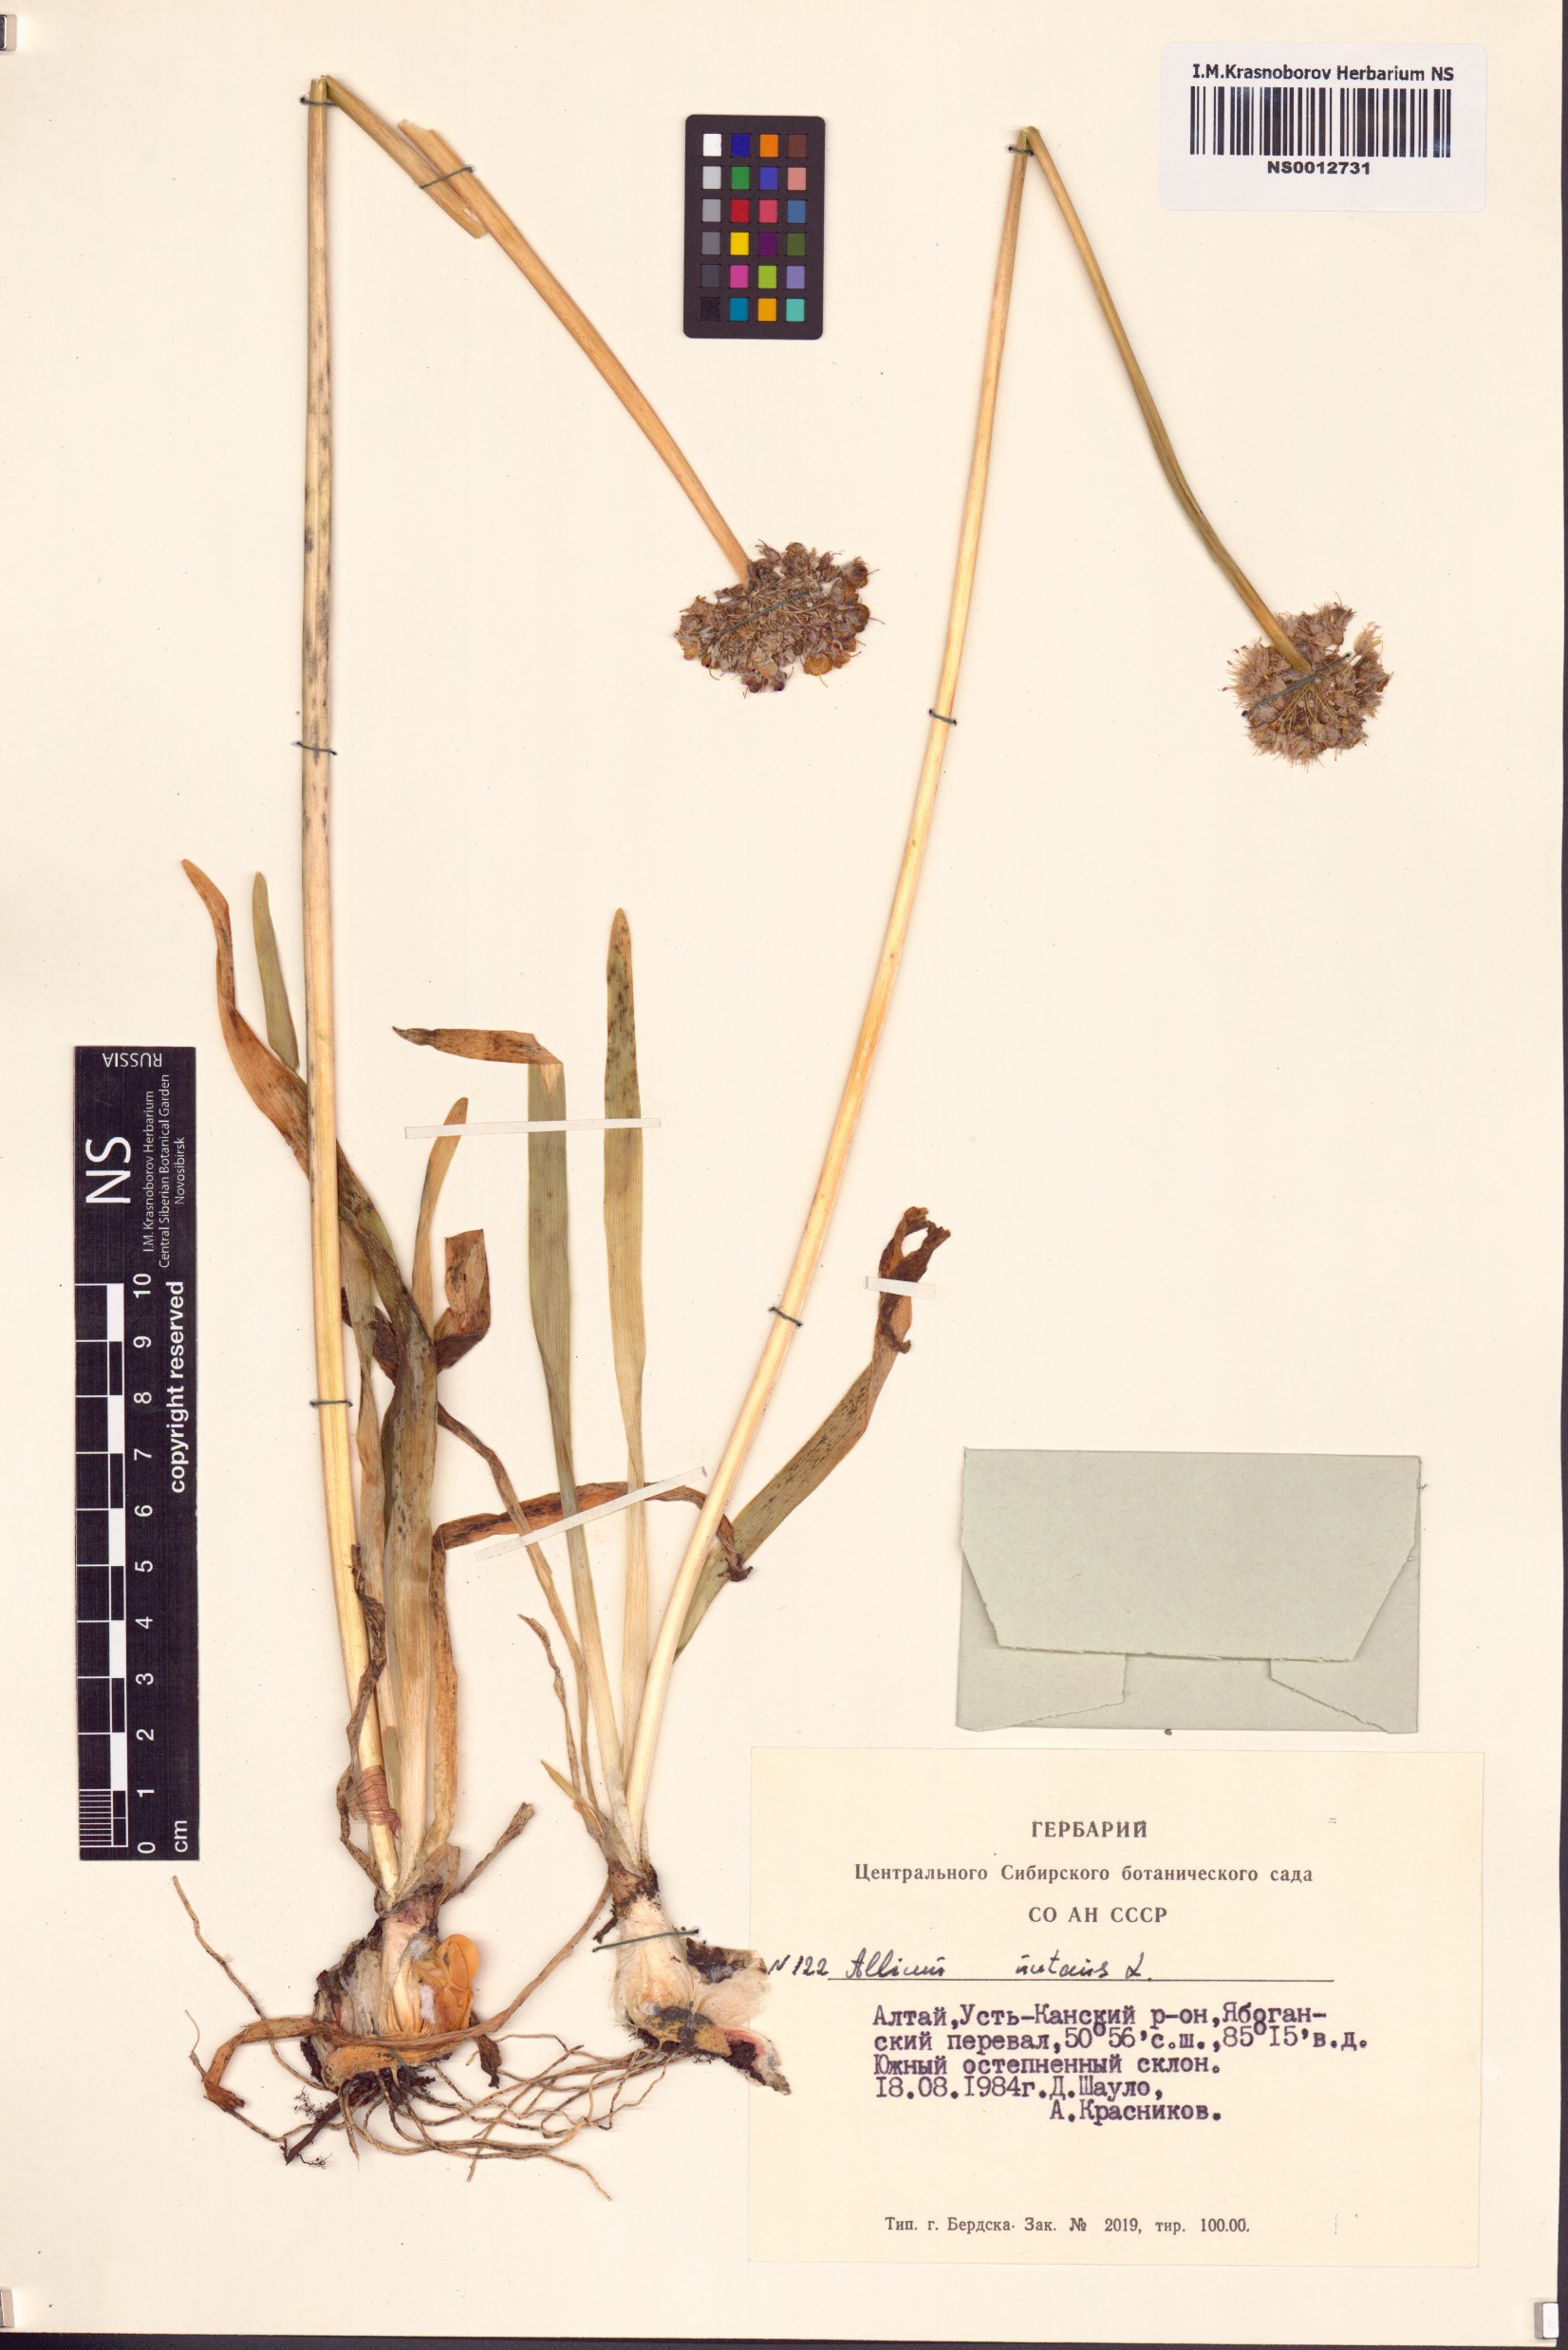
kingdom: Plantae
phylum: Tracheophyta
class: Liliopsida
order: Asparagales
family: Amaryllidaceae
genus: Allium
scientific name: Allium nutans
